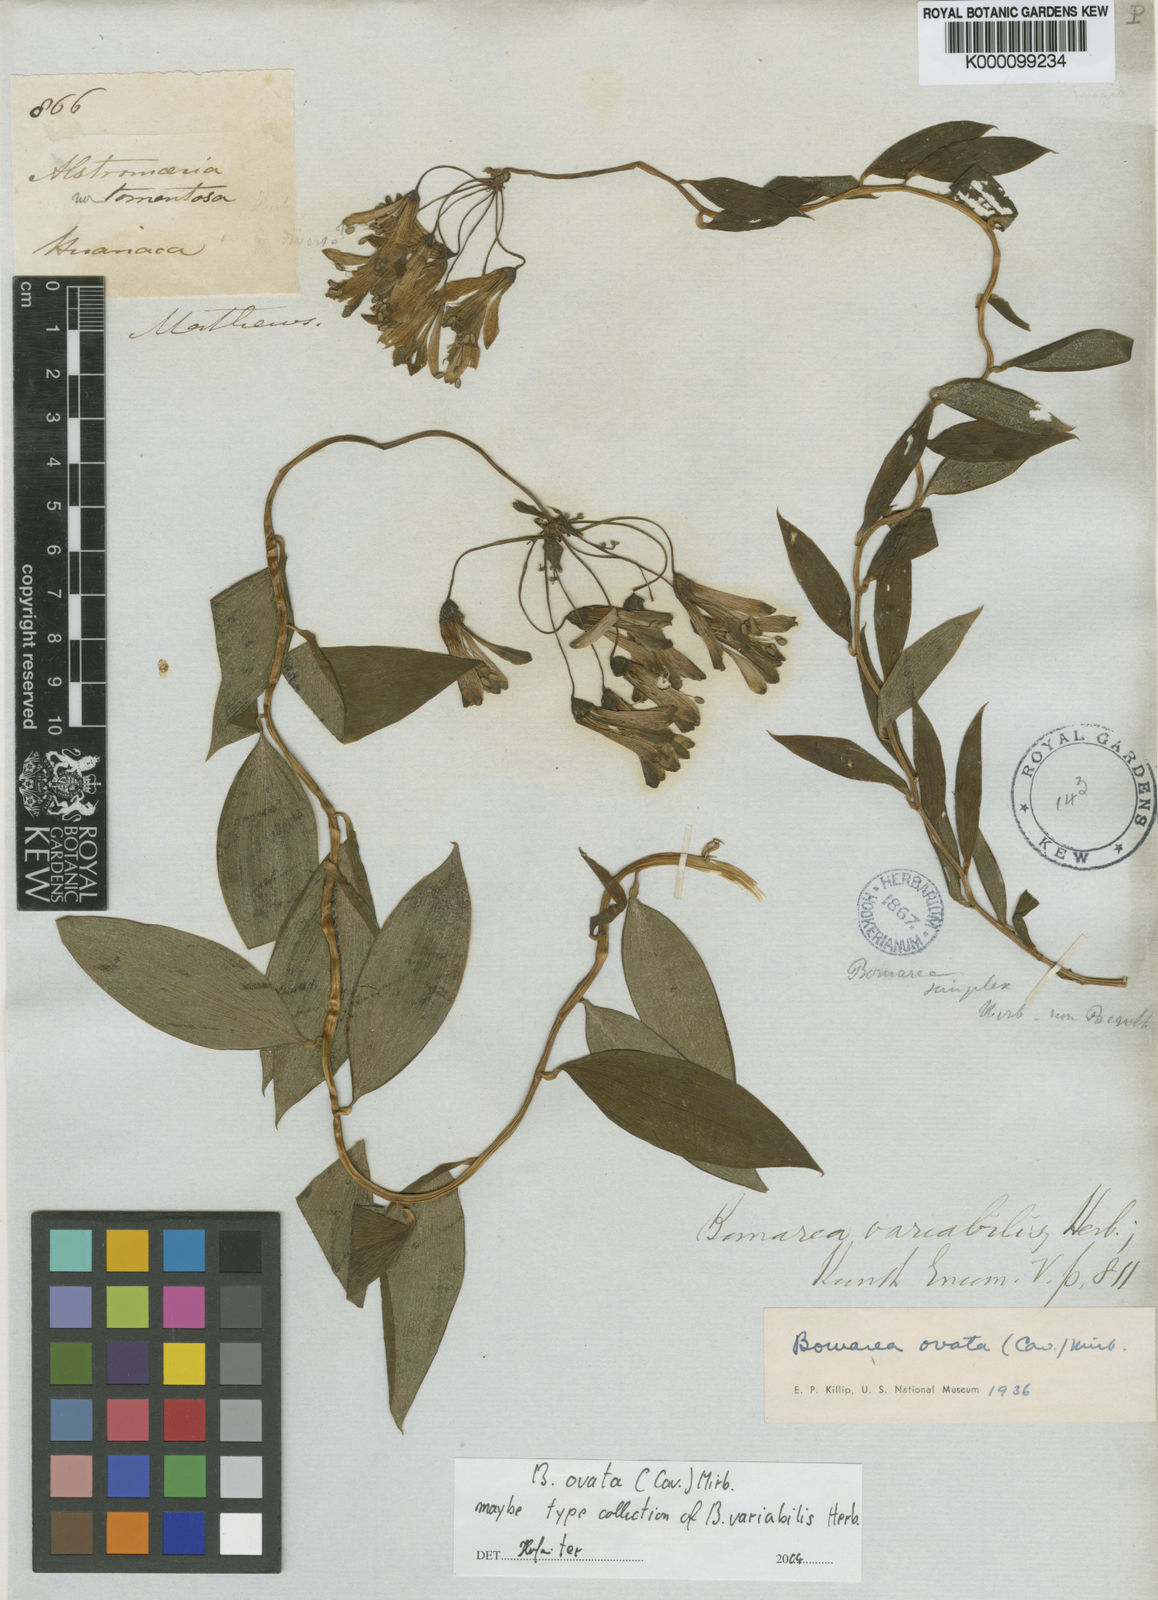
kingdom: Plantae
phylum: Tracheophyta
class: Liliopsida
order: Liliales
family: Alstroemeriaceae
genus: Bomarea
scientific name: Bomarea ovata
